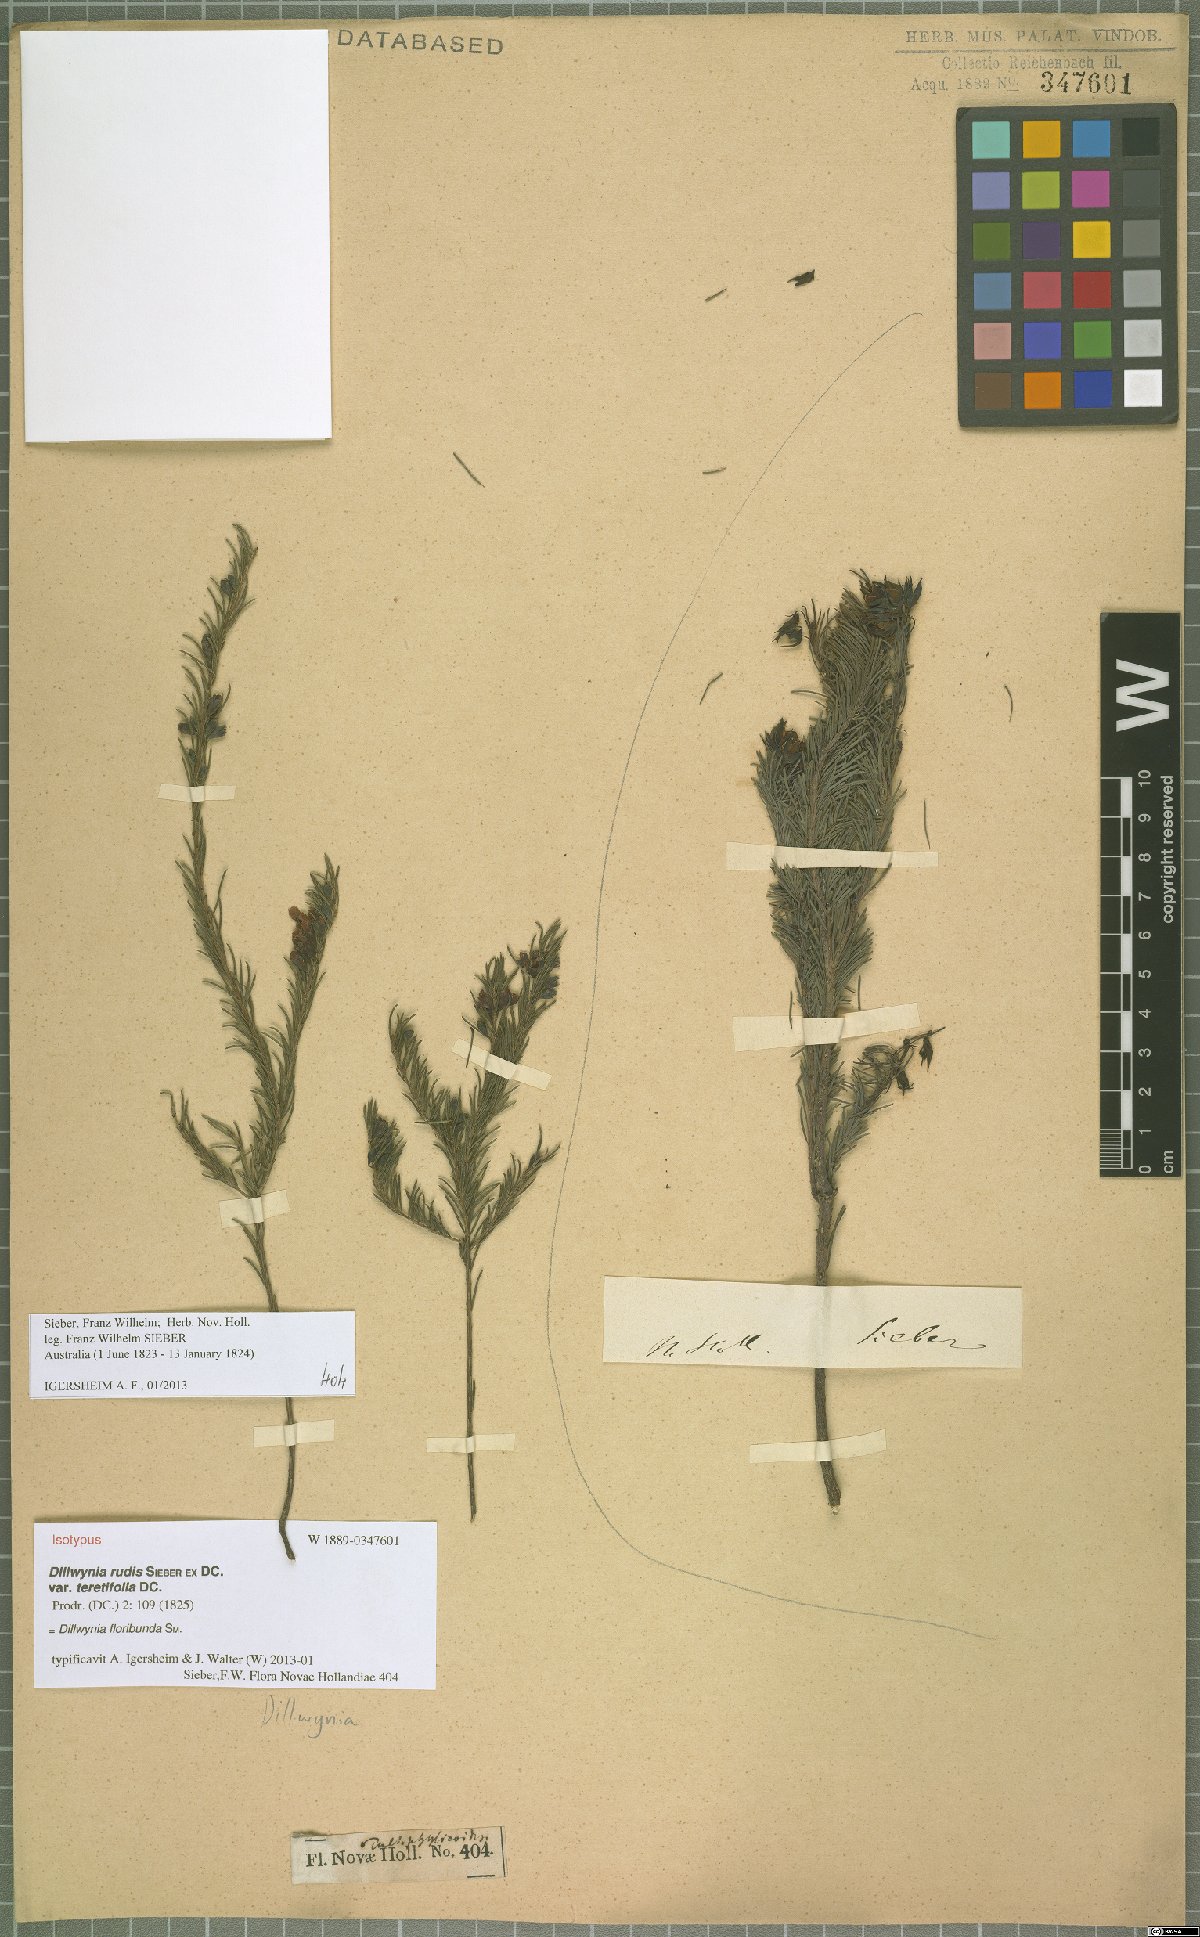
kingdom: Plantae
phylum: Tracheophyta
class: Magnoliopsida
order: Fabales
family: Fabaceae
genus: Dillwynia
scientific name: Dillwynia floribunda
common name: Eggs-and-bacon
